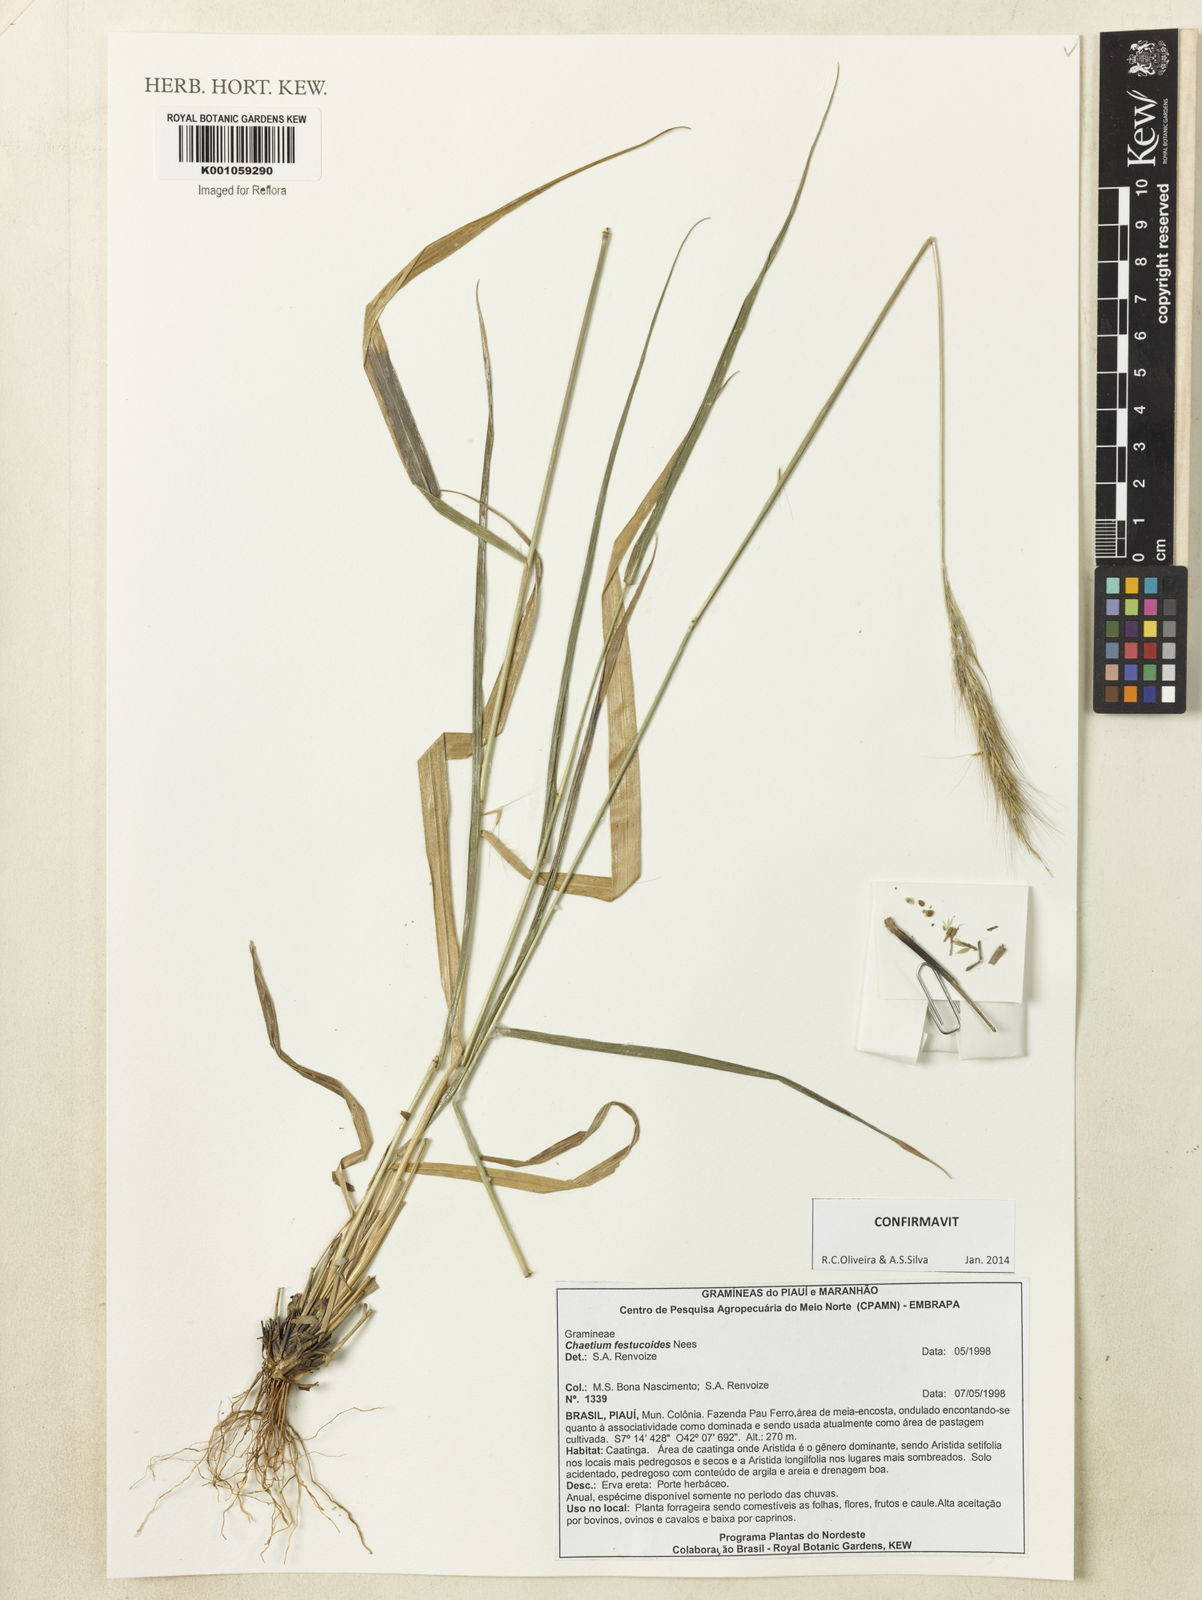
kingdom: Plantae
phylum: Tracheophyta
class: Liliopsida
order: Poales
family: Poaceae
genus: Chaetium
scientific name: Chaetium festucoides
